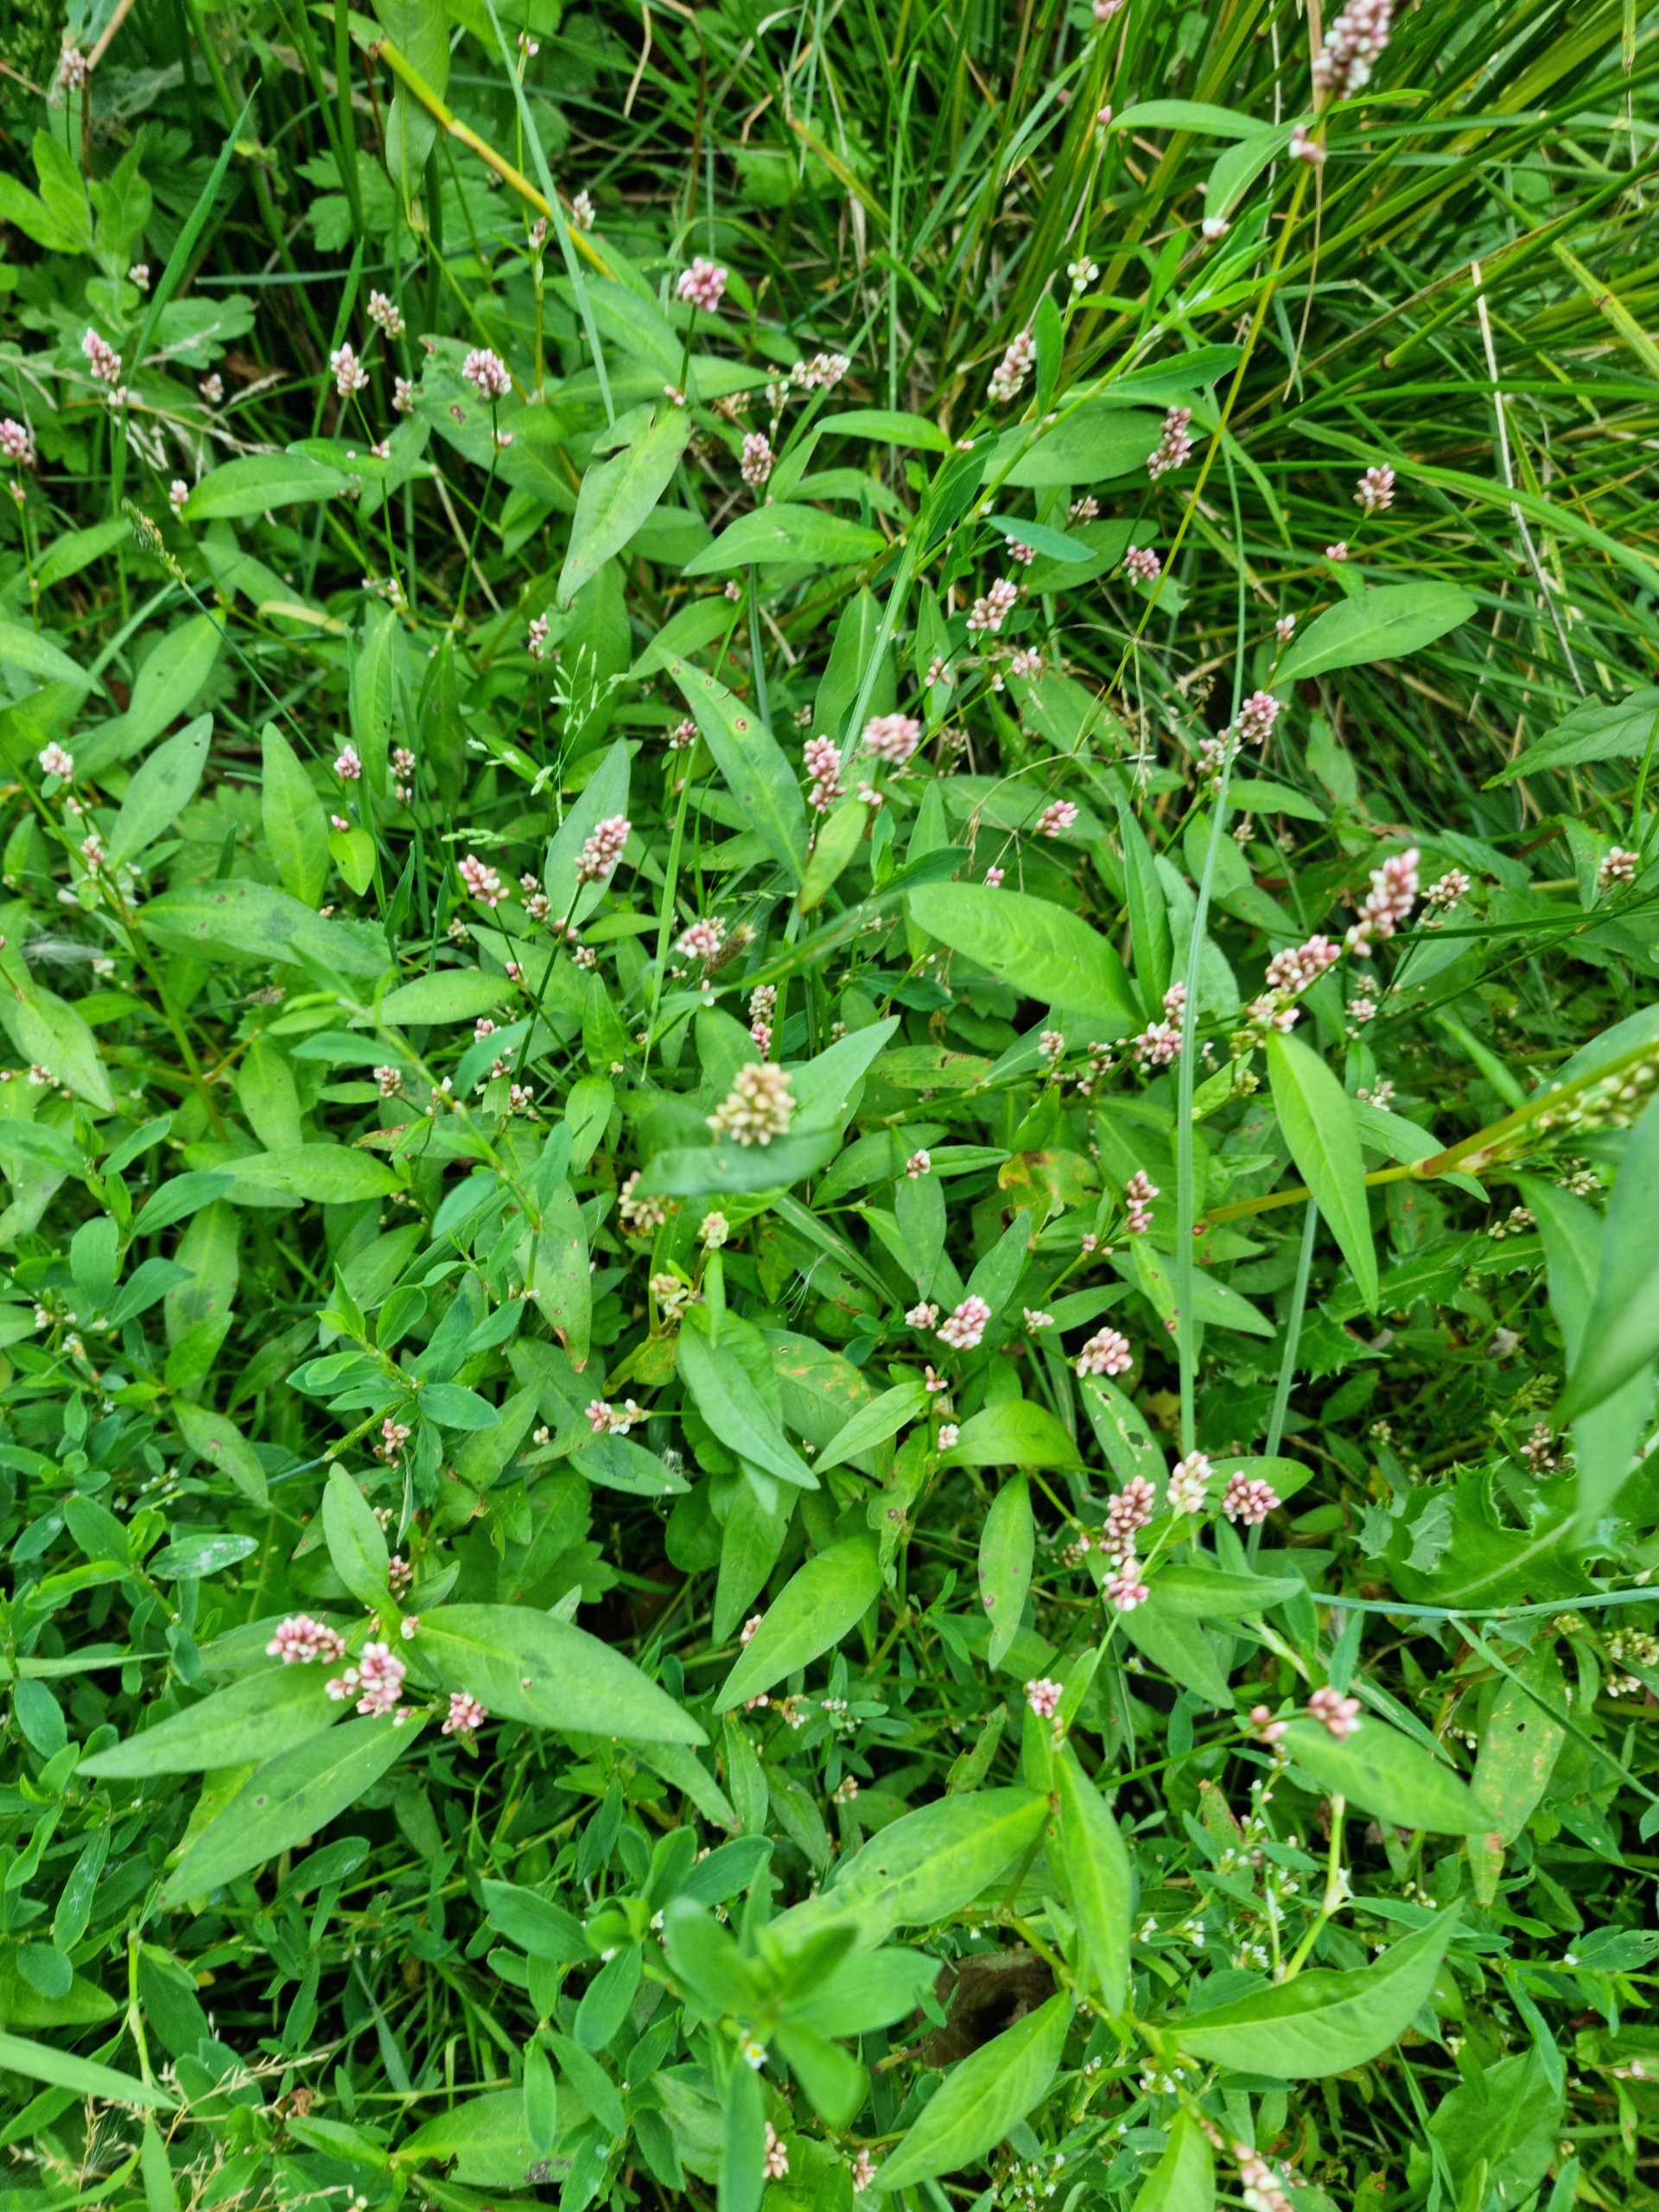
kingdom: Plantae
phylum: Tracheophyta
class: Magnoliopsida
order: Caryophyllales
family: Polygonaceae
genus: Persicaria
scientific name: Persicaria maculosa
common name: Fersken-pileurt
